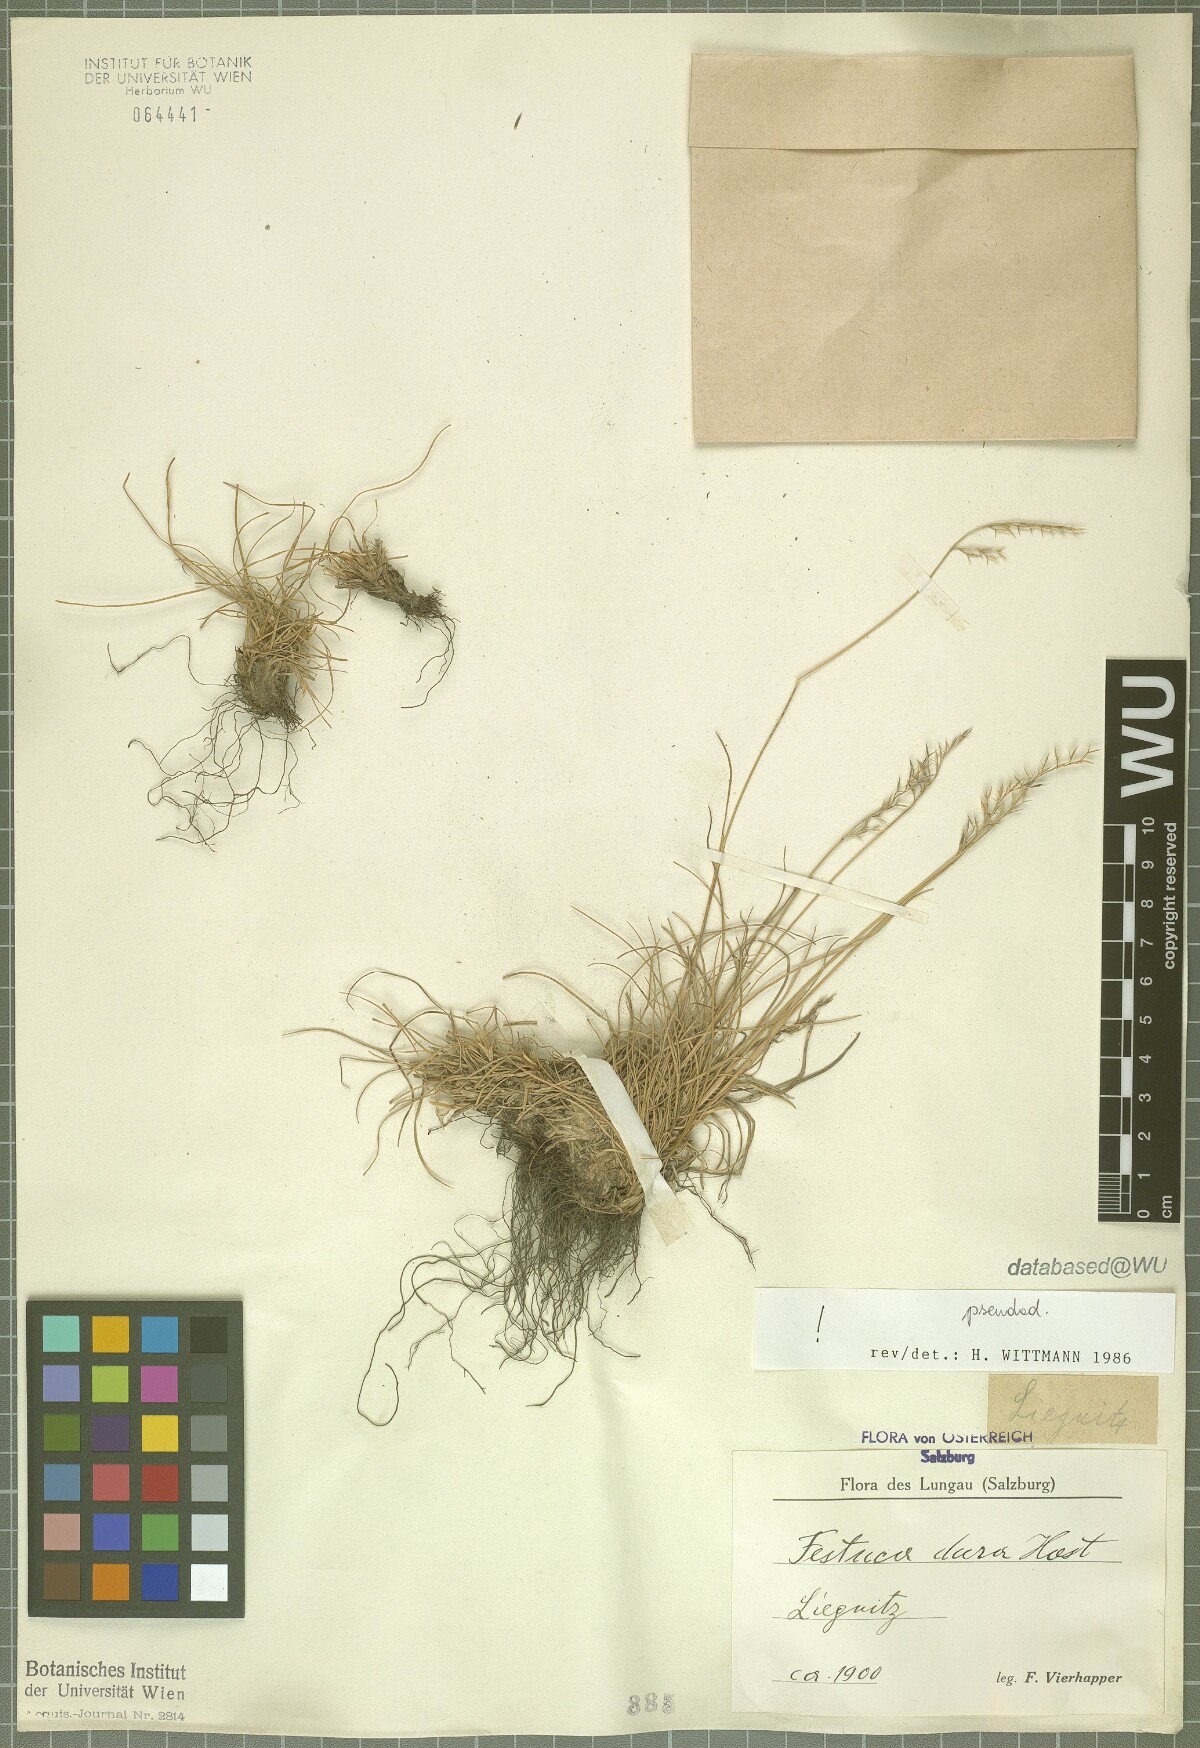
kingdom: Plantae
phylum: Tracheophyta
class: Liliopsida
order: Poales
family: Poaceae
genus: Festuca
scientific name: Festuca pseudodura
